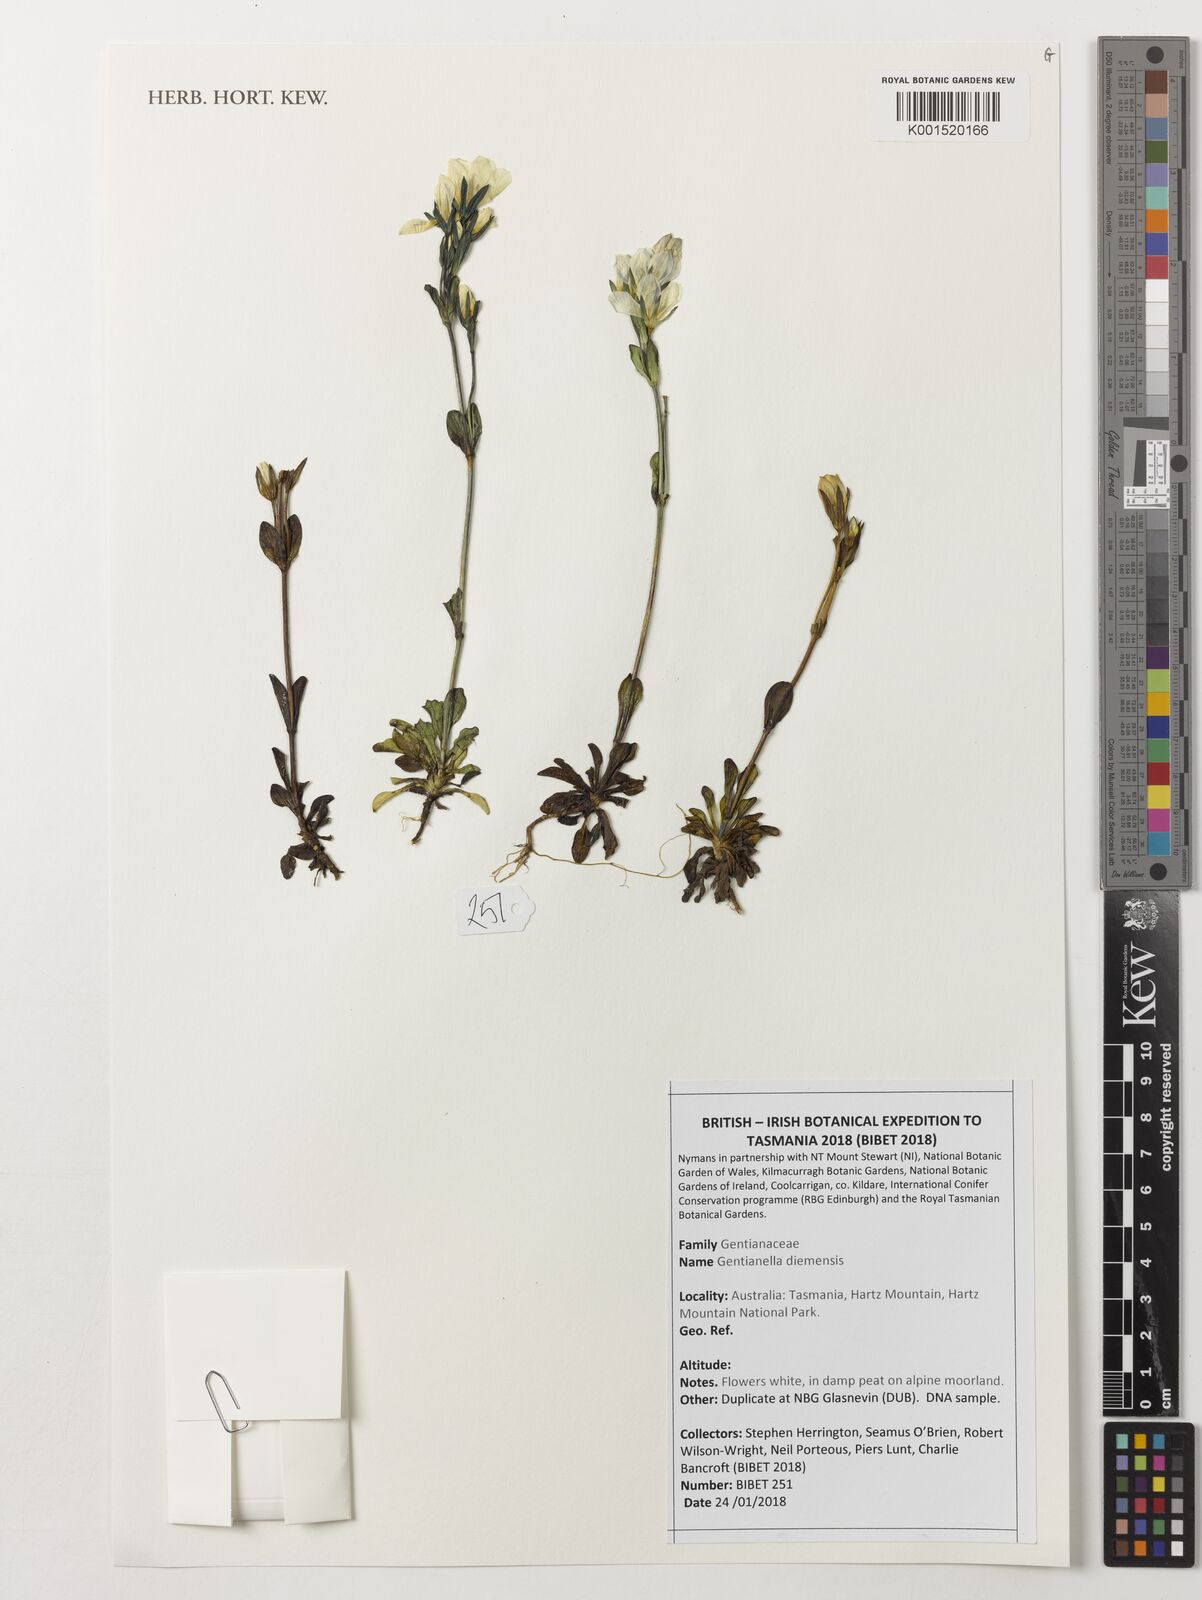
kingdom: Plantae
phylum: Tracheophyta
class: Magnoliopsida
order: Gentianales
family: Gentianaceae
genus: Gentianella
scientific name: Gentianella diemensis
